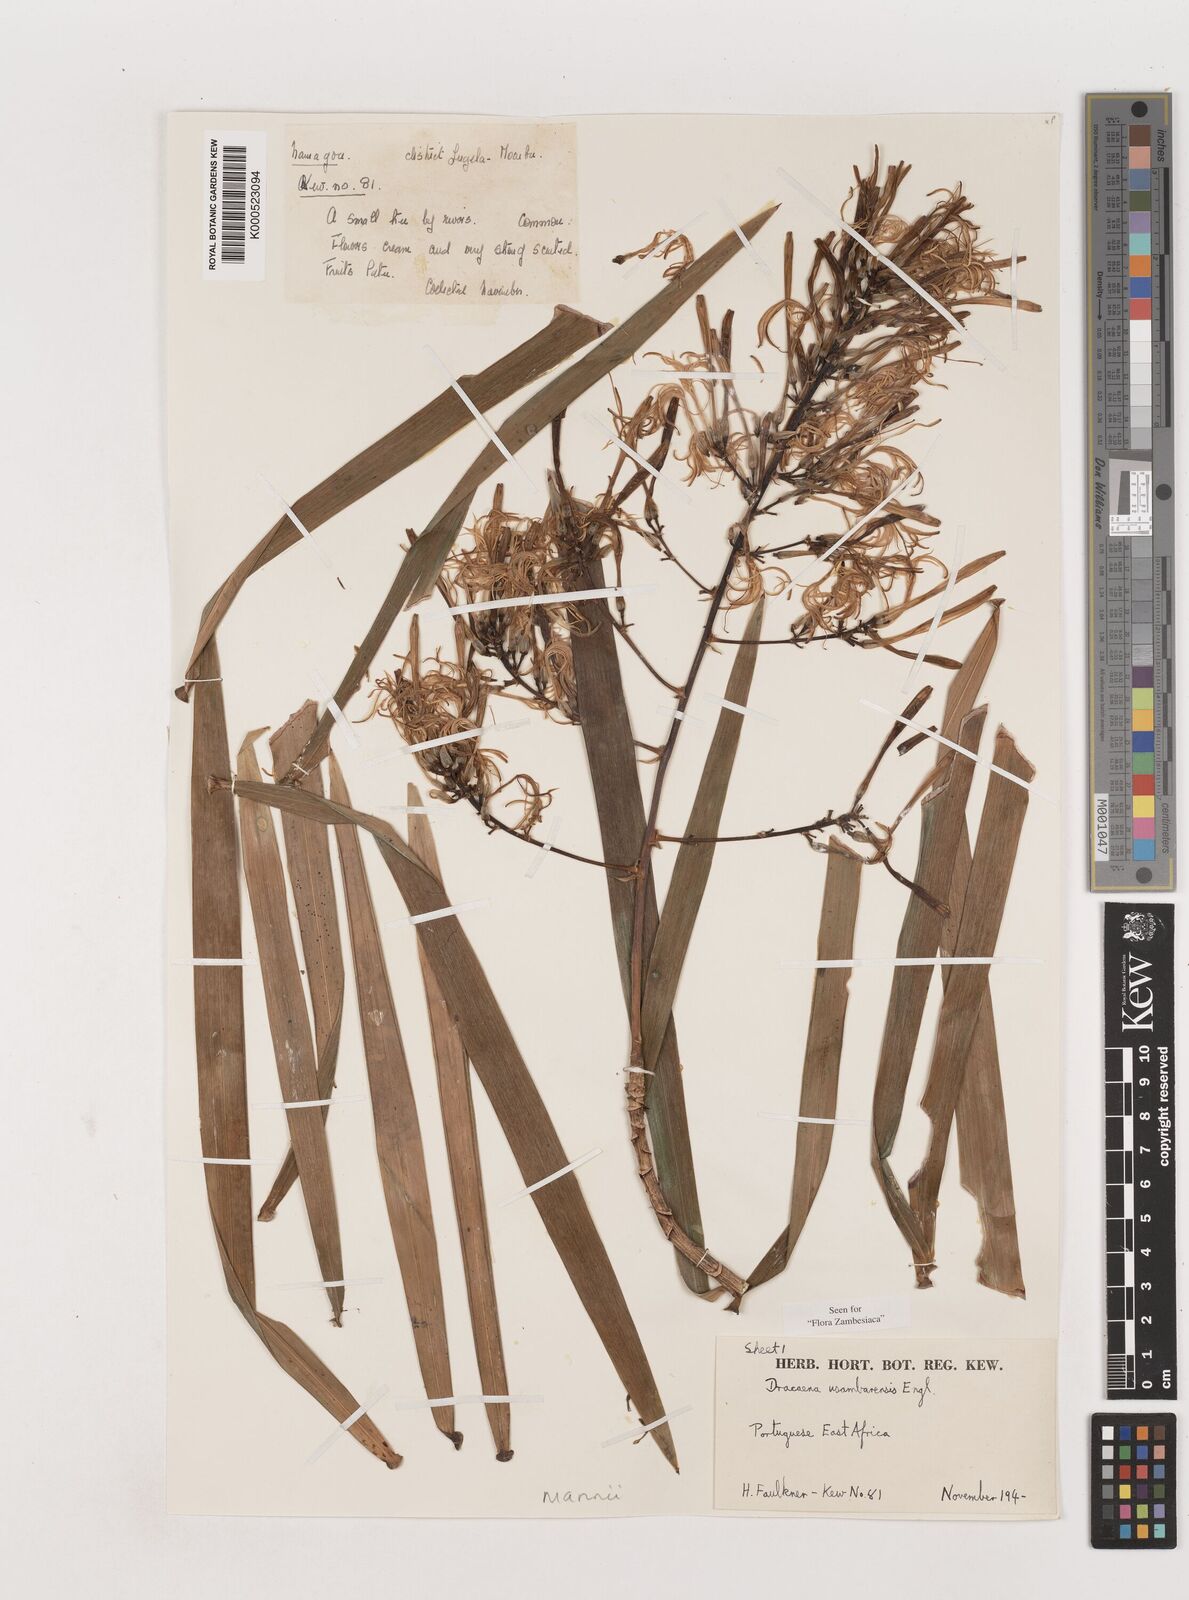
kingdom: Plantae
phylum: Tracheophyta
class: Liliopsida
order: Asparagales
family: Asparagaceae
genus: Dracaena
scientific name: Dracaena mannii
